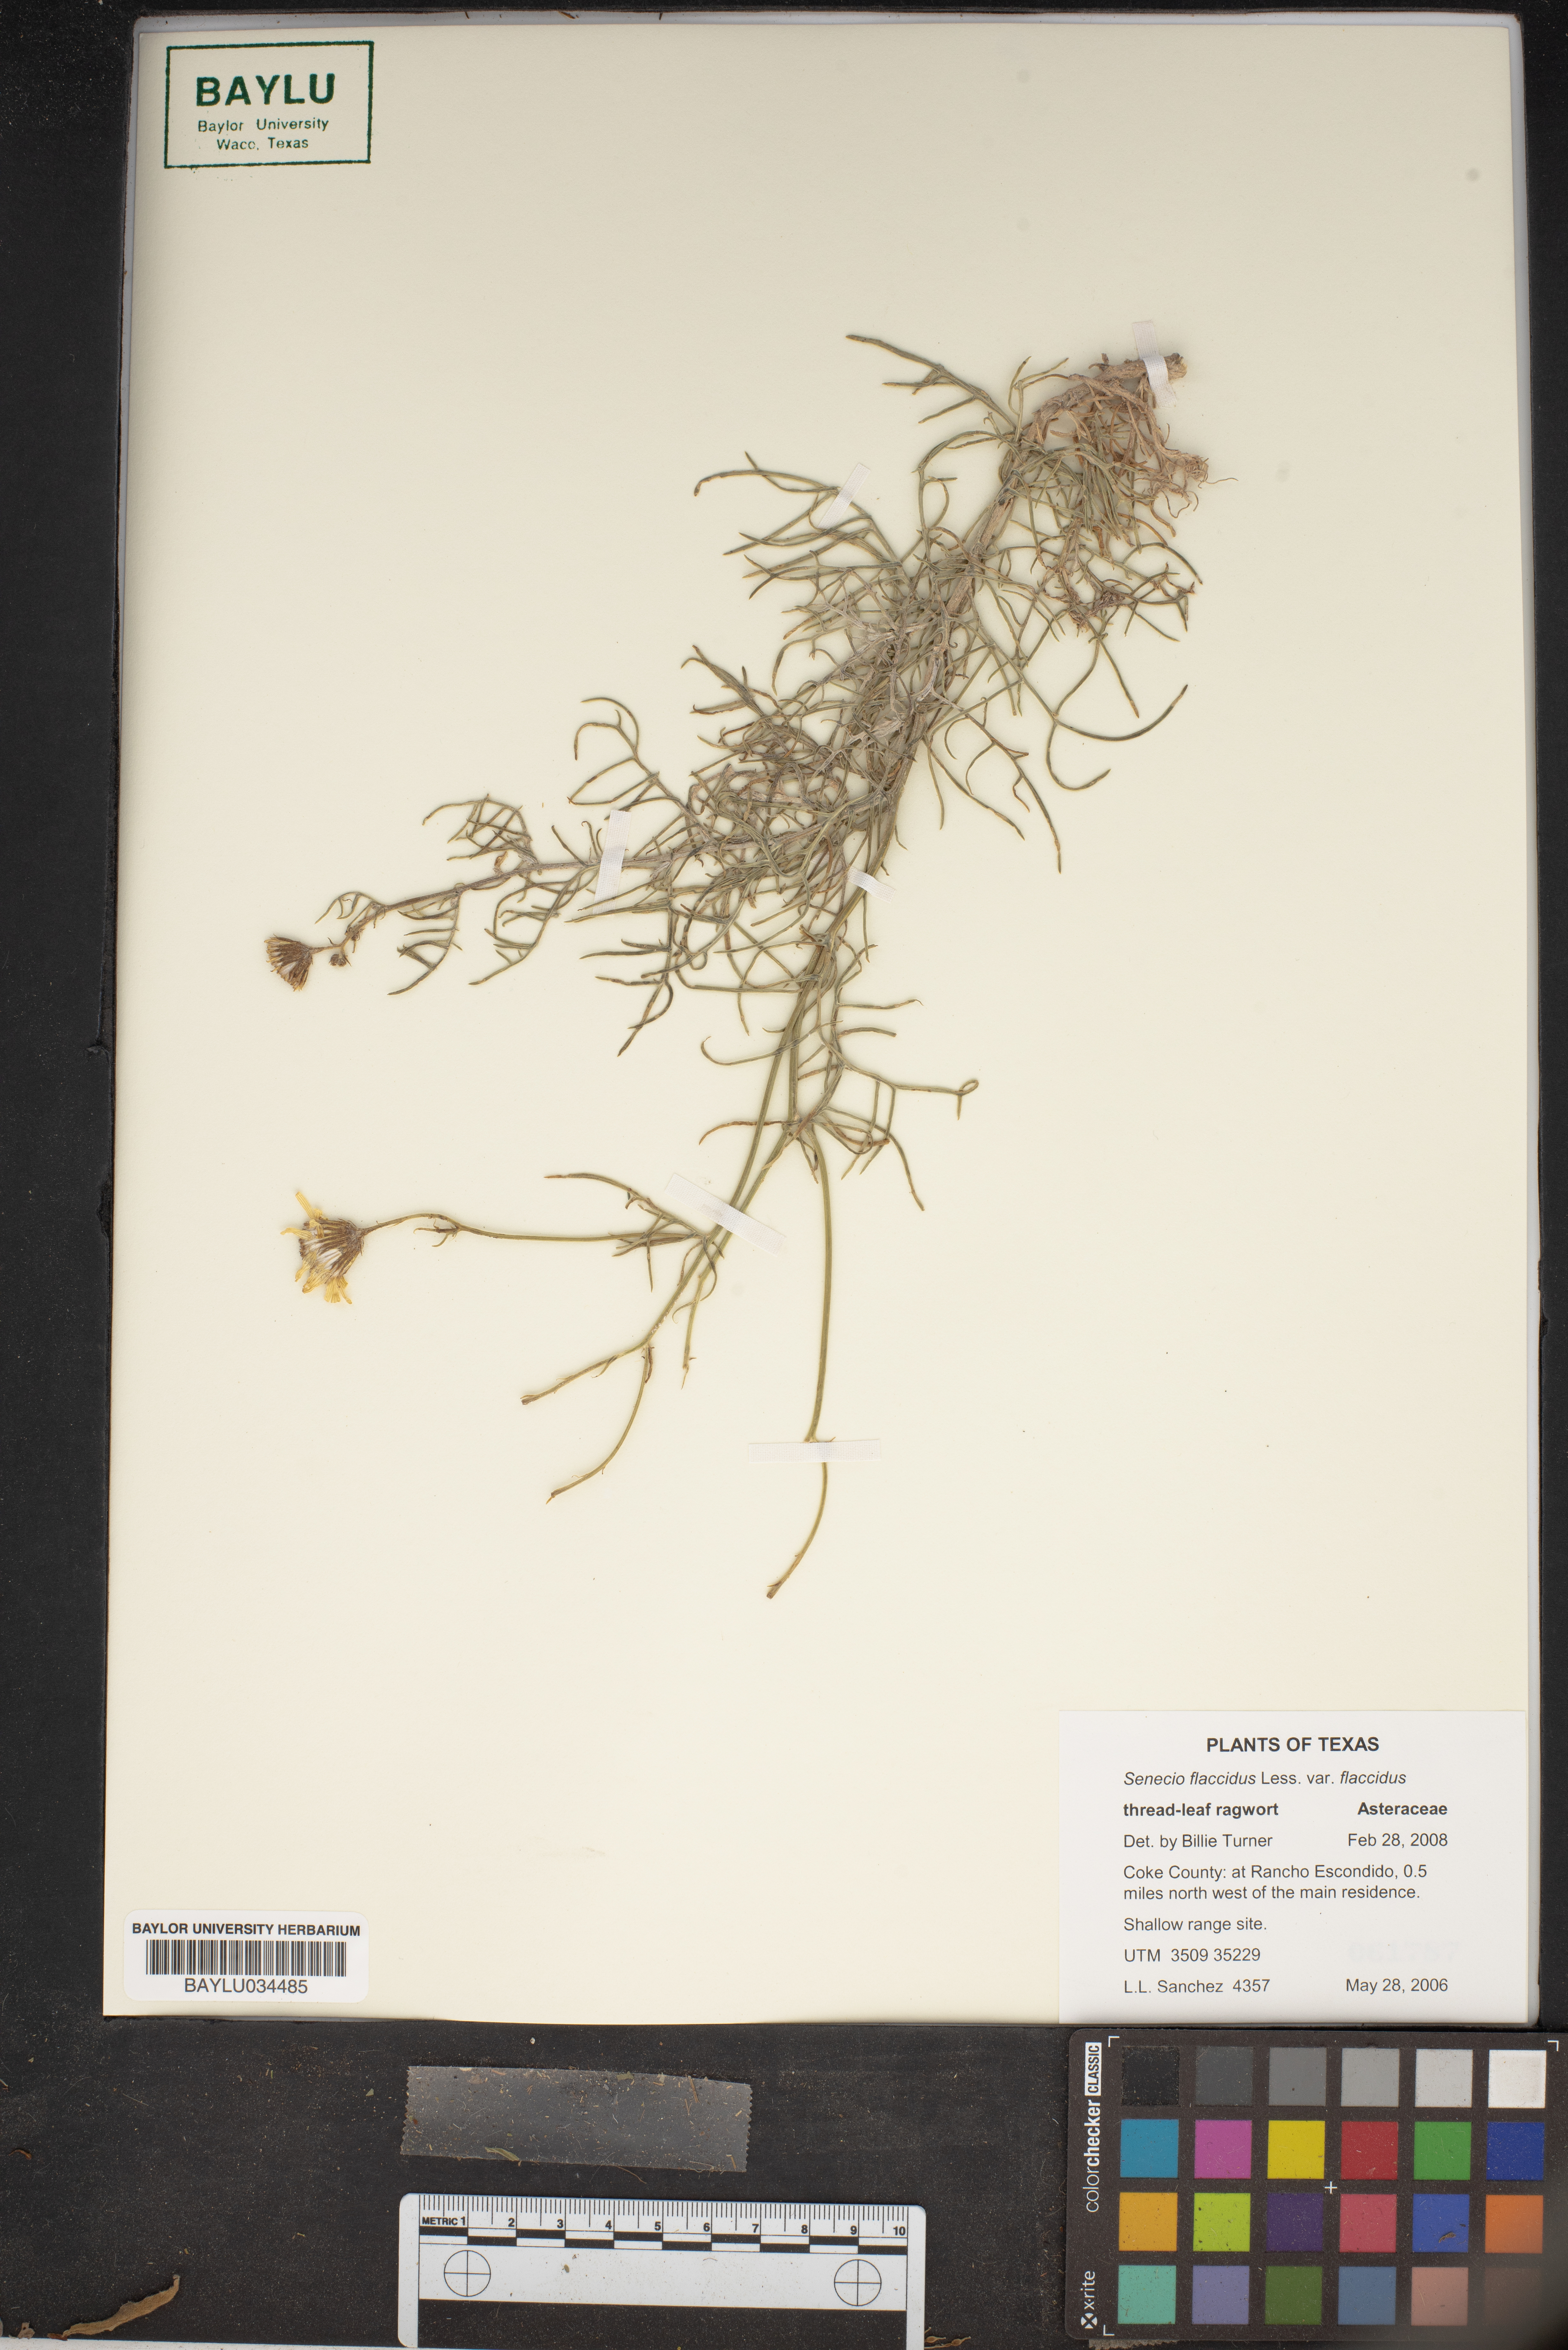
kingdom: Plantae
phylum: Tracheophyta
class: Magnoliopsida
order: Asterales
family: Asteraceae
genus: Senecio
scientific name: Senecio flaccidus
